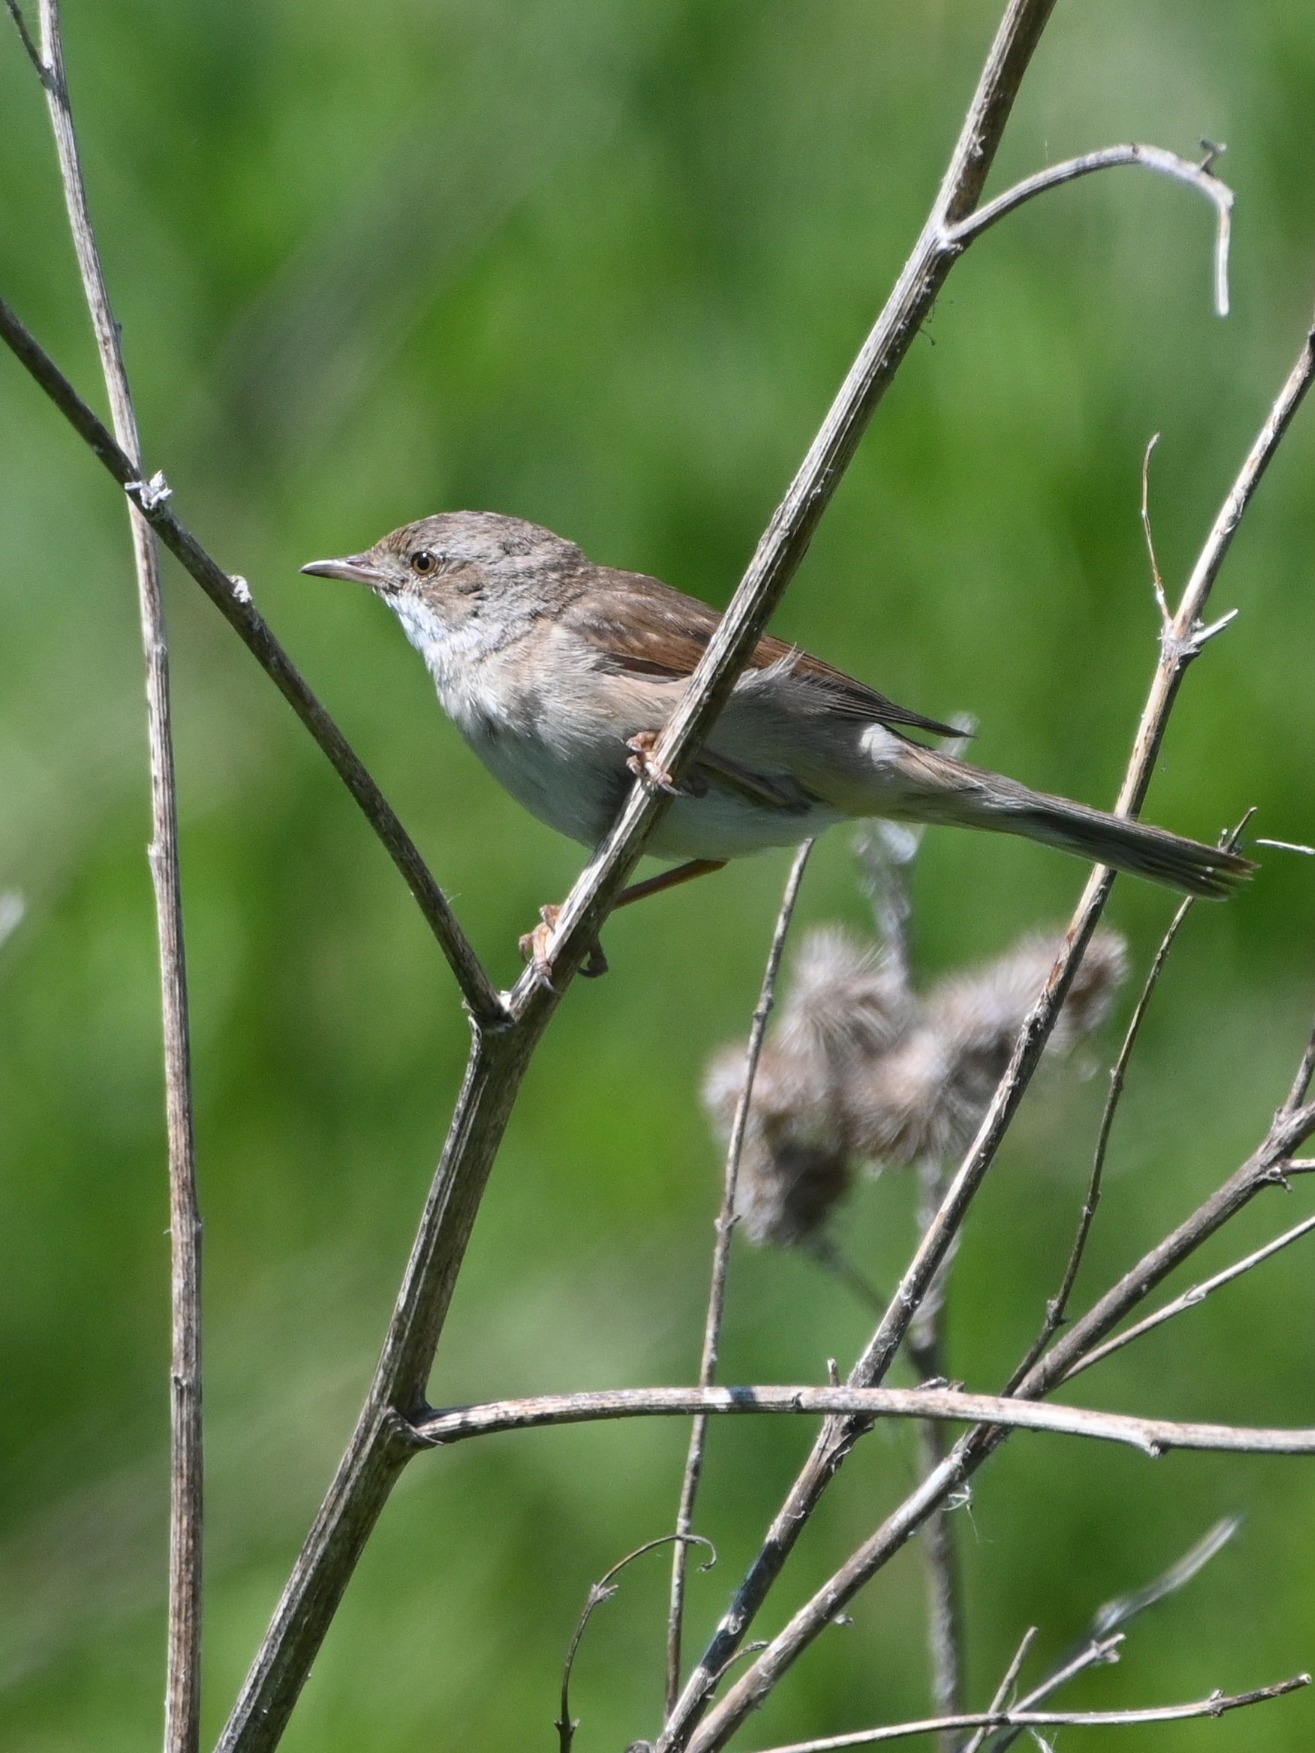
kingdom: Animalia
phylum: Chordata
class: Aves
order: Passeriformes
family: Sylviidae
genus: Sylvia
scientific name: Sylvia communis
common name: Tornsanger
